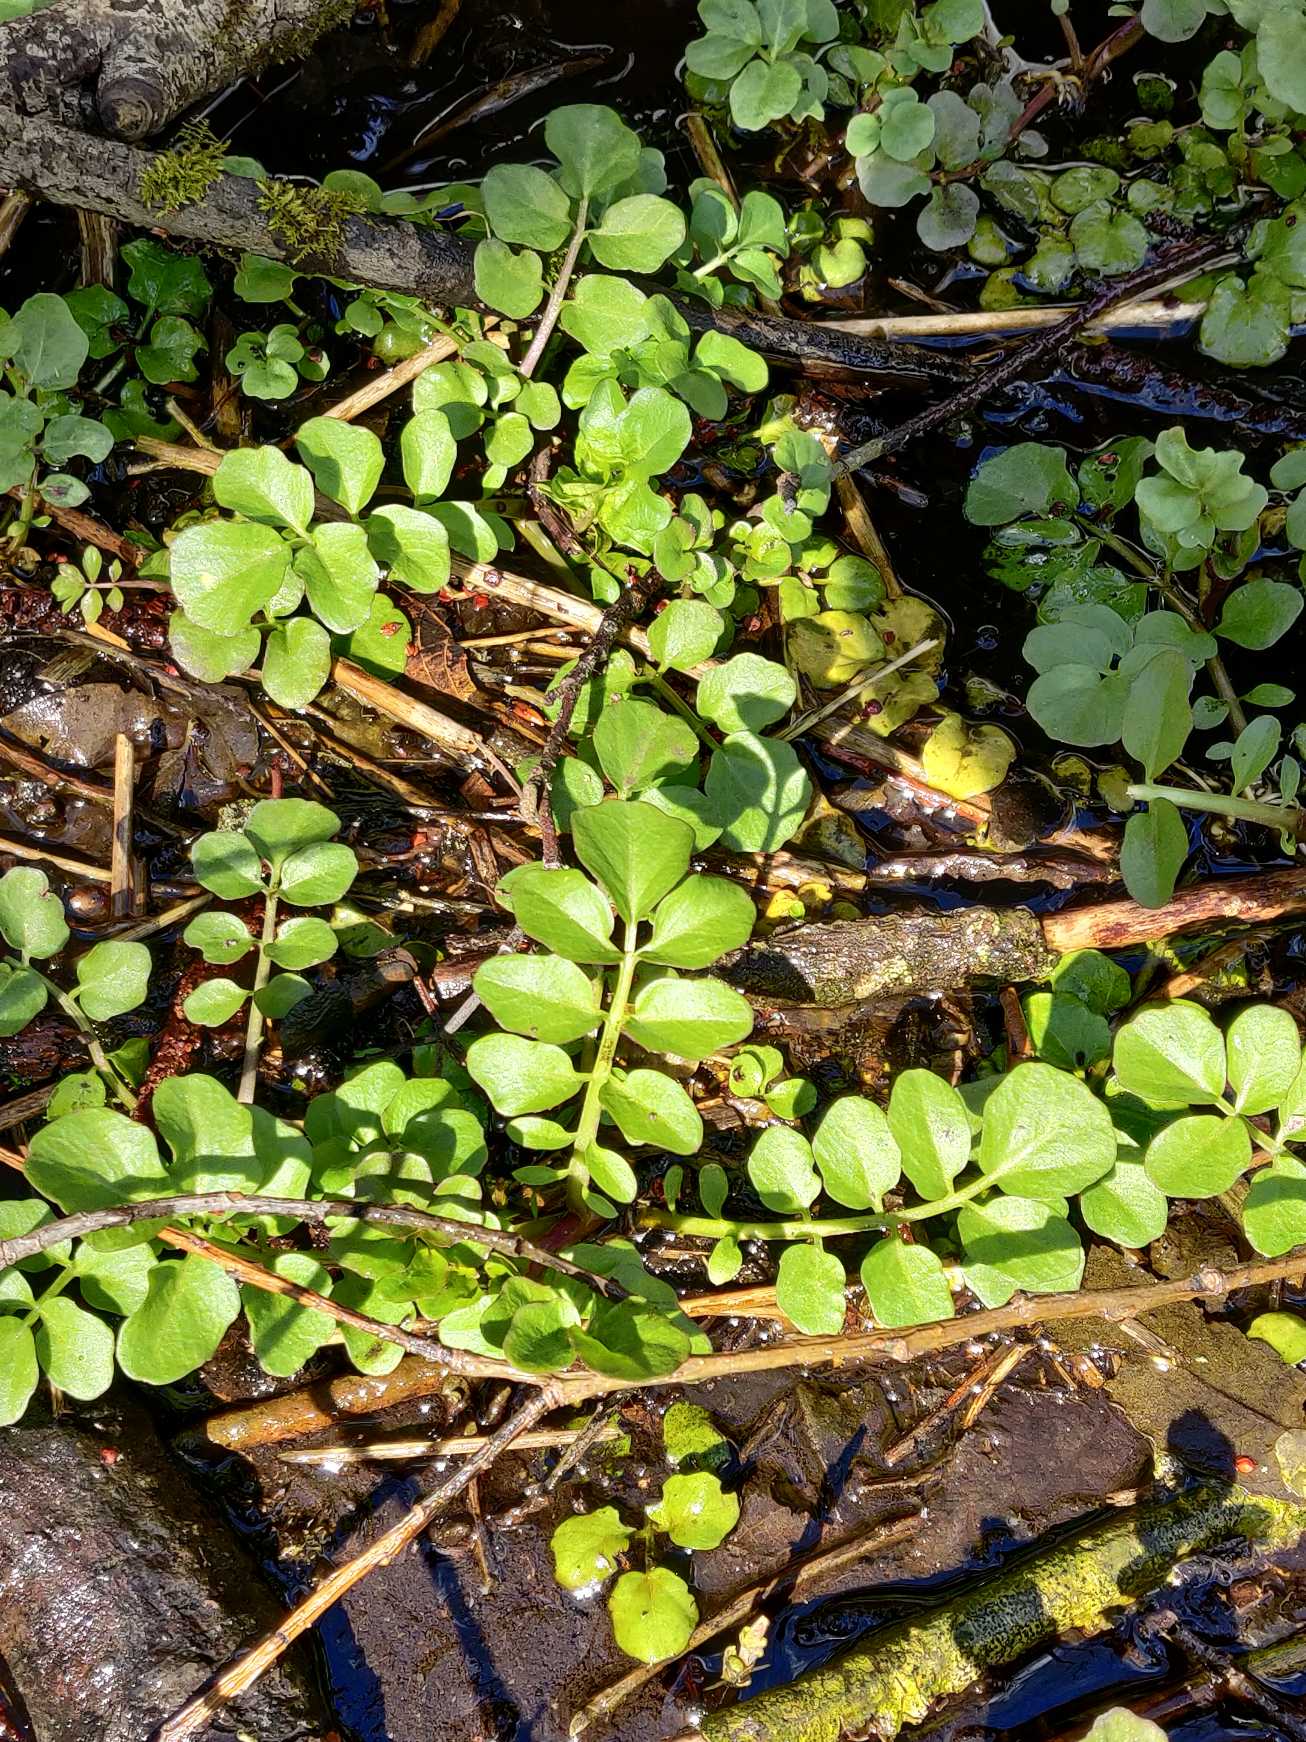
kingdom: Plantae
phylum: Tracheophyta
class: Magnoliopsida
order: Brassicales
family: Brassicaceae
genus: Cardamine
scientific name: Cardamine amara
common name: Vandkarse
